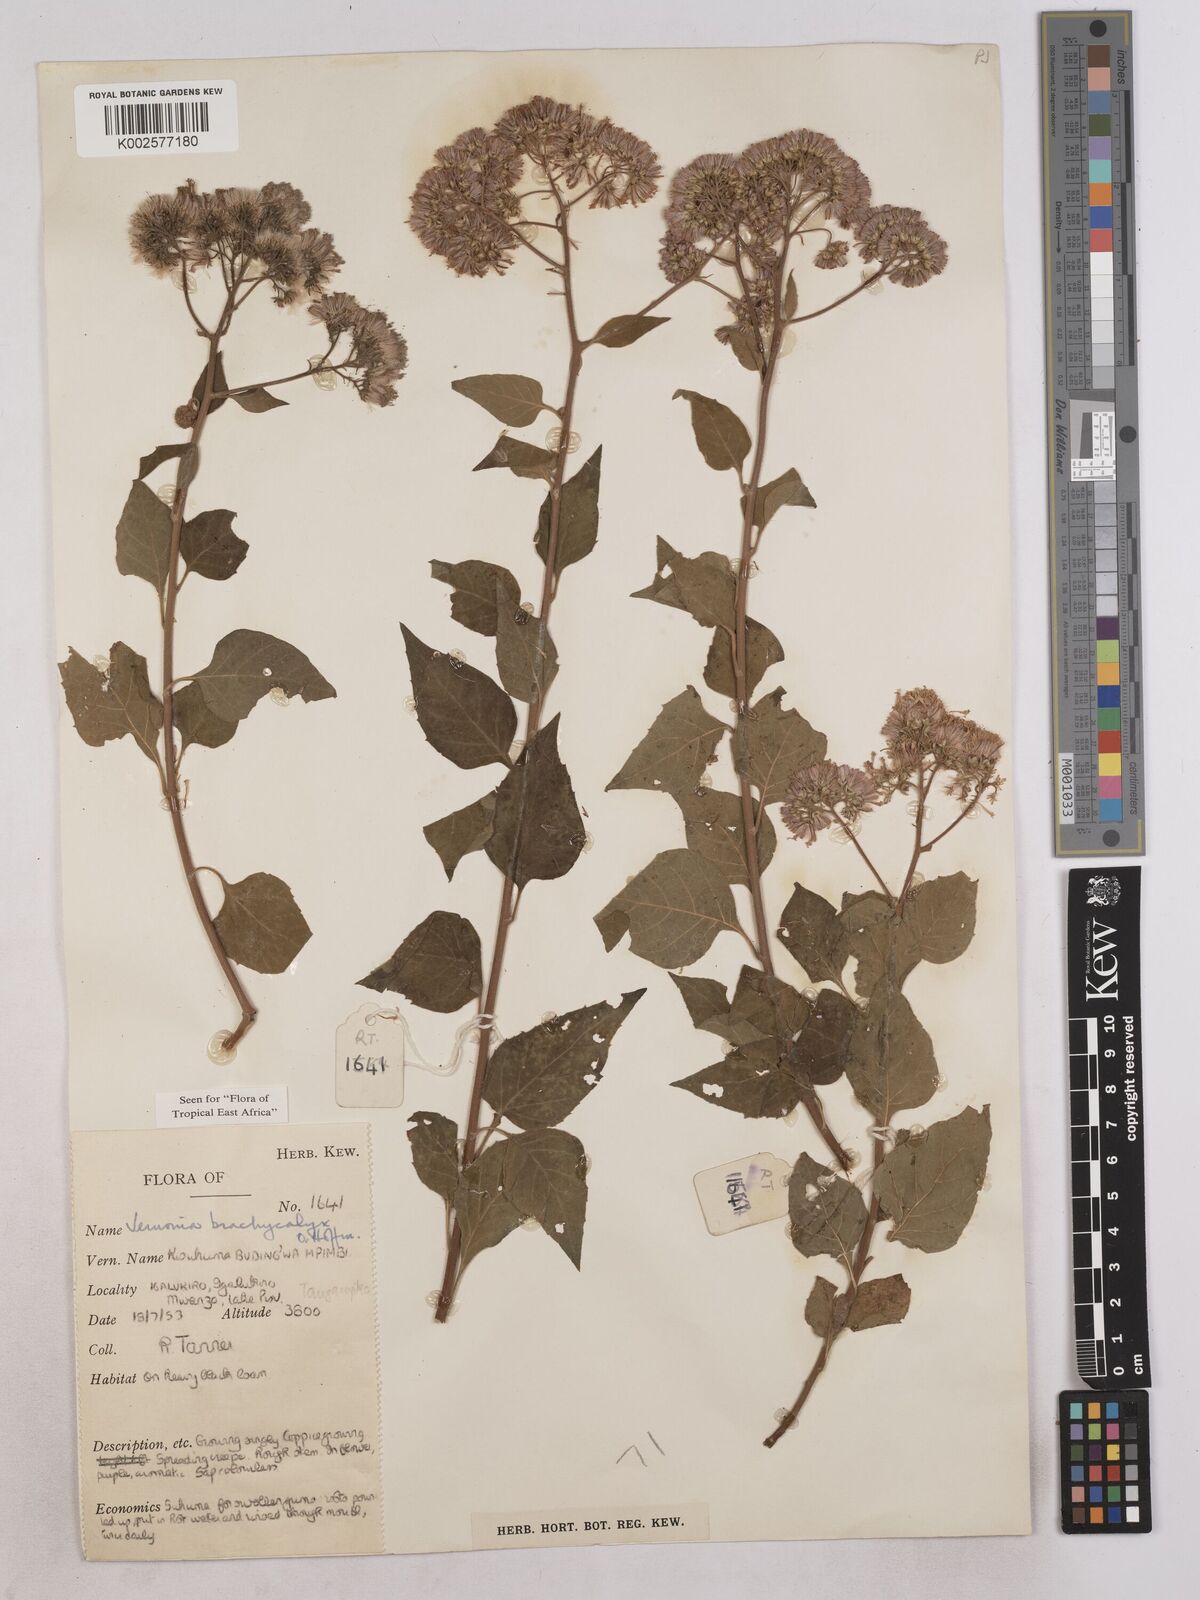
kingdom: Plantae
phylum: Tracheophyta
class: Magnoliopsida
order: Asterales
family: Asteraceae
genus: Hoffmannanthus
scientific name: Hoffmannanthus abbotianus
